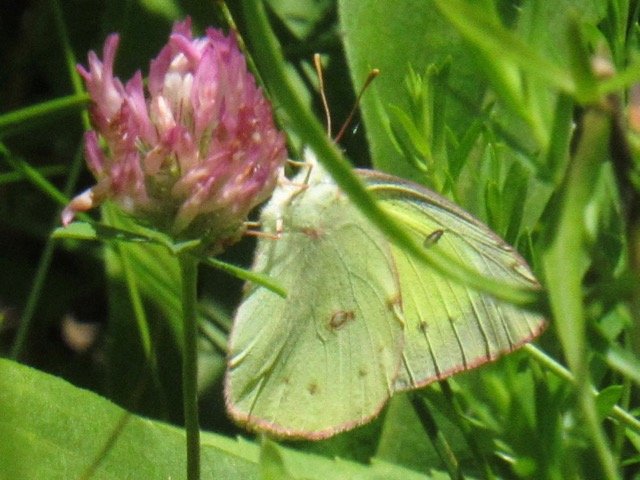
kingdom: Animalia
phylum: Arthropoda
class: Insecta
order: Lepidoptera
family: Pieridae
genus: Colias
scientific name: Colias philodice
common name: Clouded Sulphur
